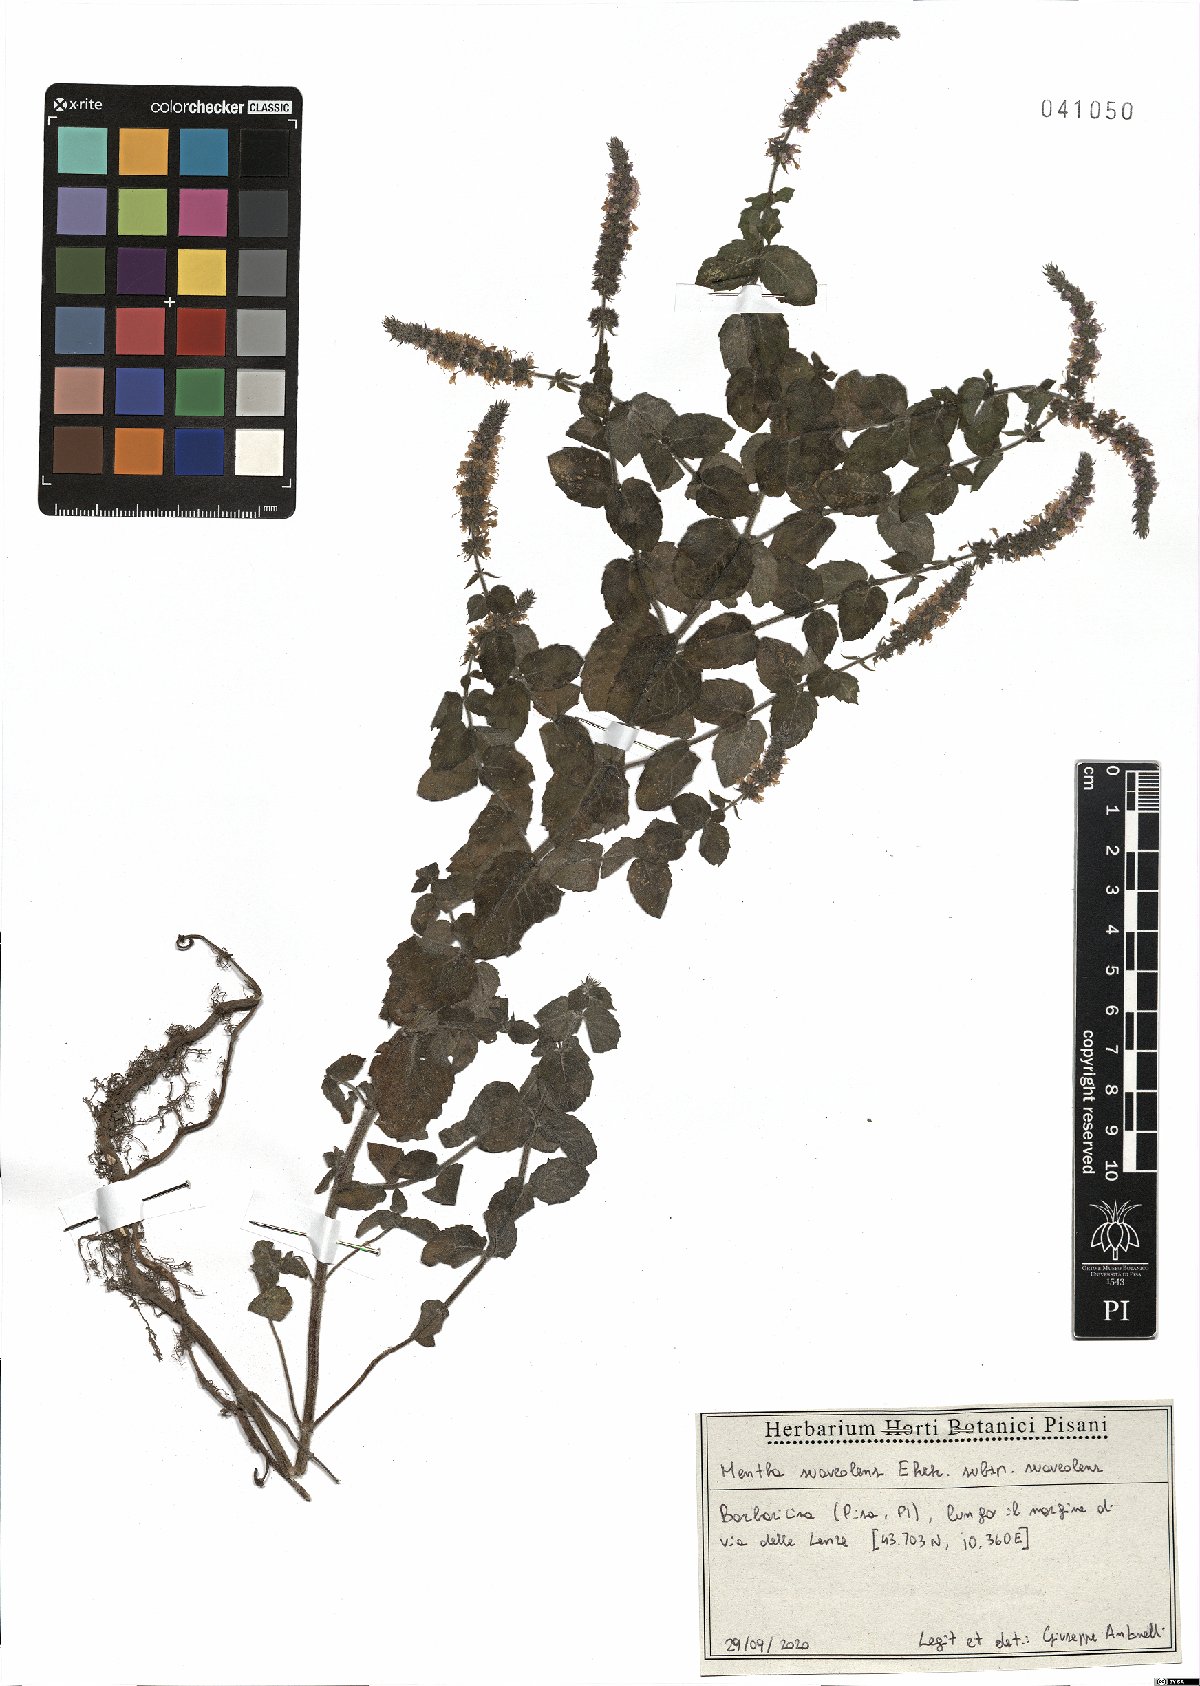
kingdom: Plantae
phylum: Tracheophyta
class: Magnoliopsida
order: Lamiales
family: Lamiaceae
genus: Mentha
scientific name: Mentha suaveolens
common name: Apple mint
